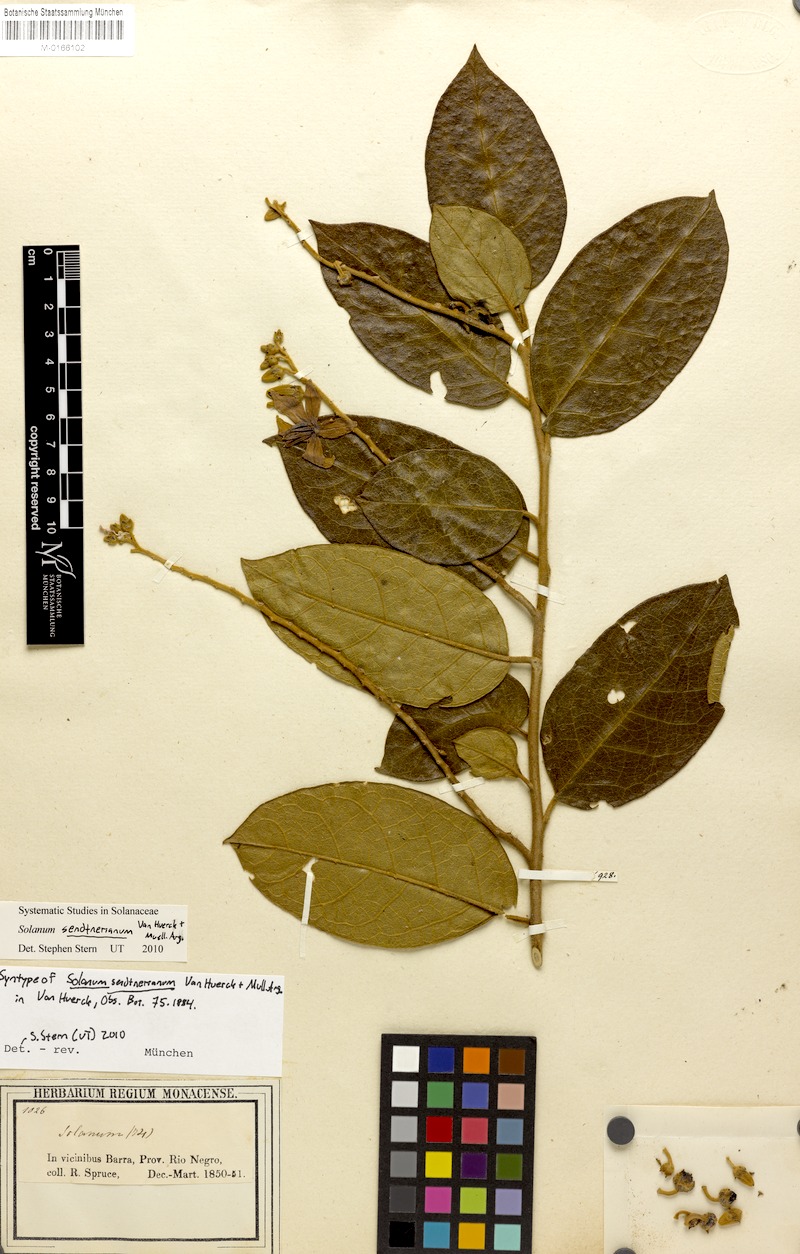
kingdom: Plantae
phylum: Tracheophyta
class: Magnoliopsida
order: Solanales
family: Solanaceae
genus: Solanum
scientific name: Solanum sendtnerianum
